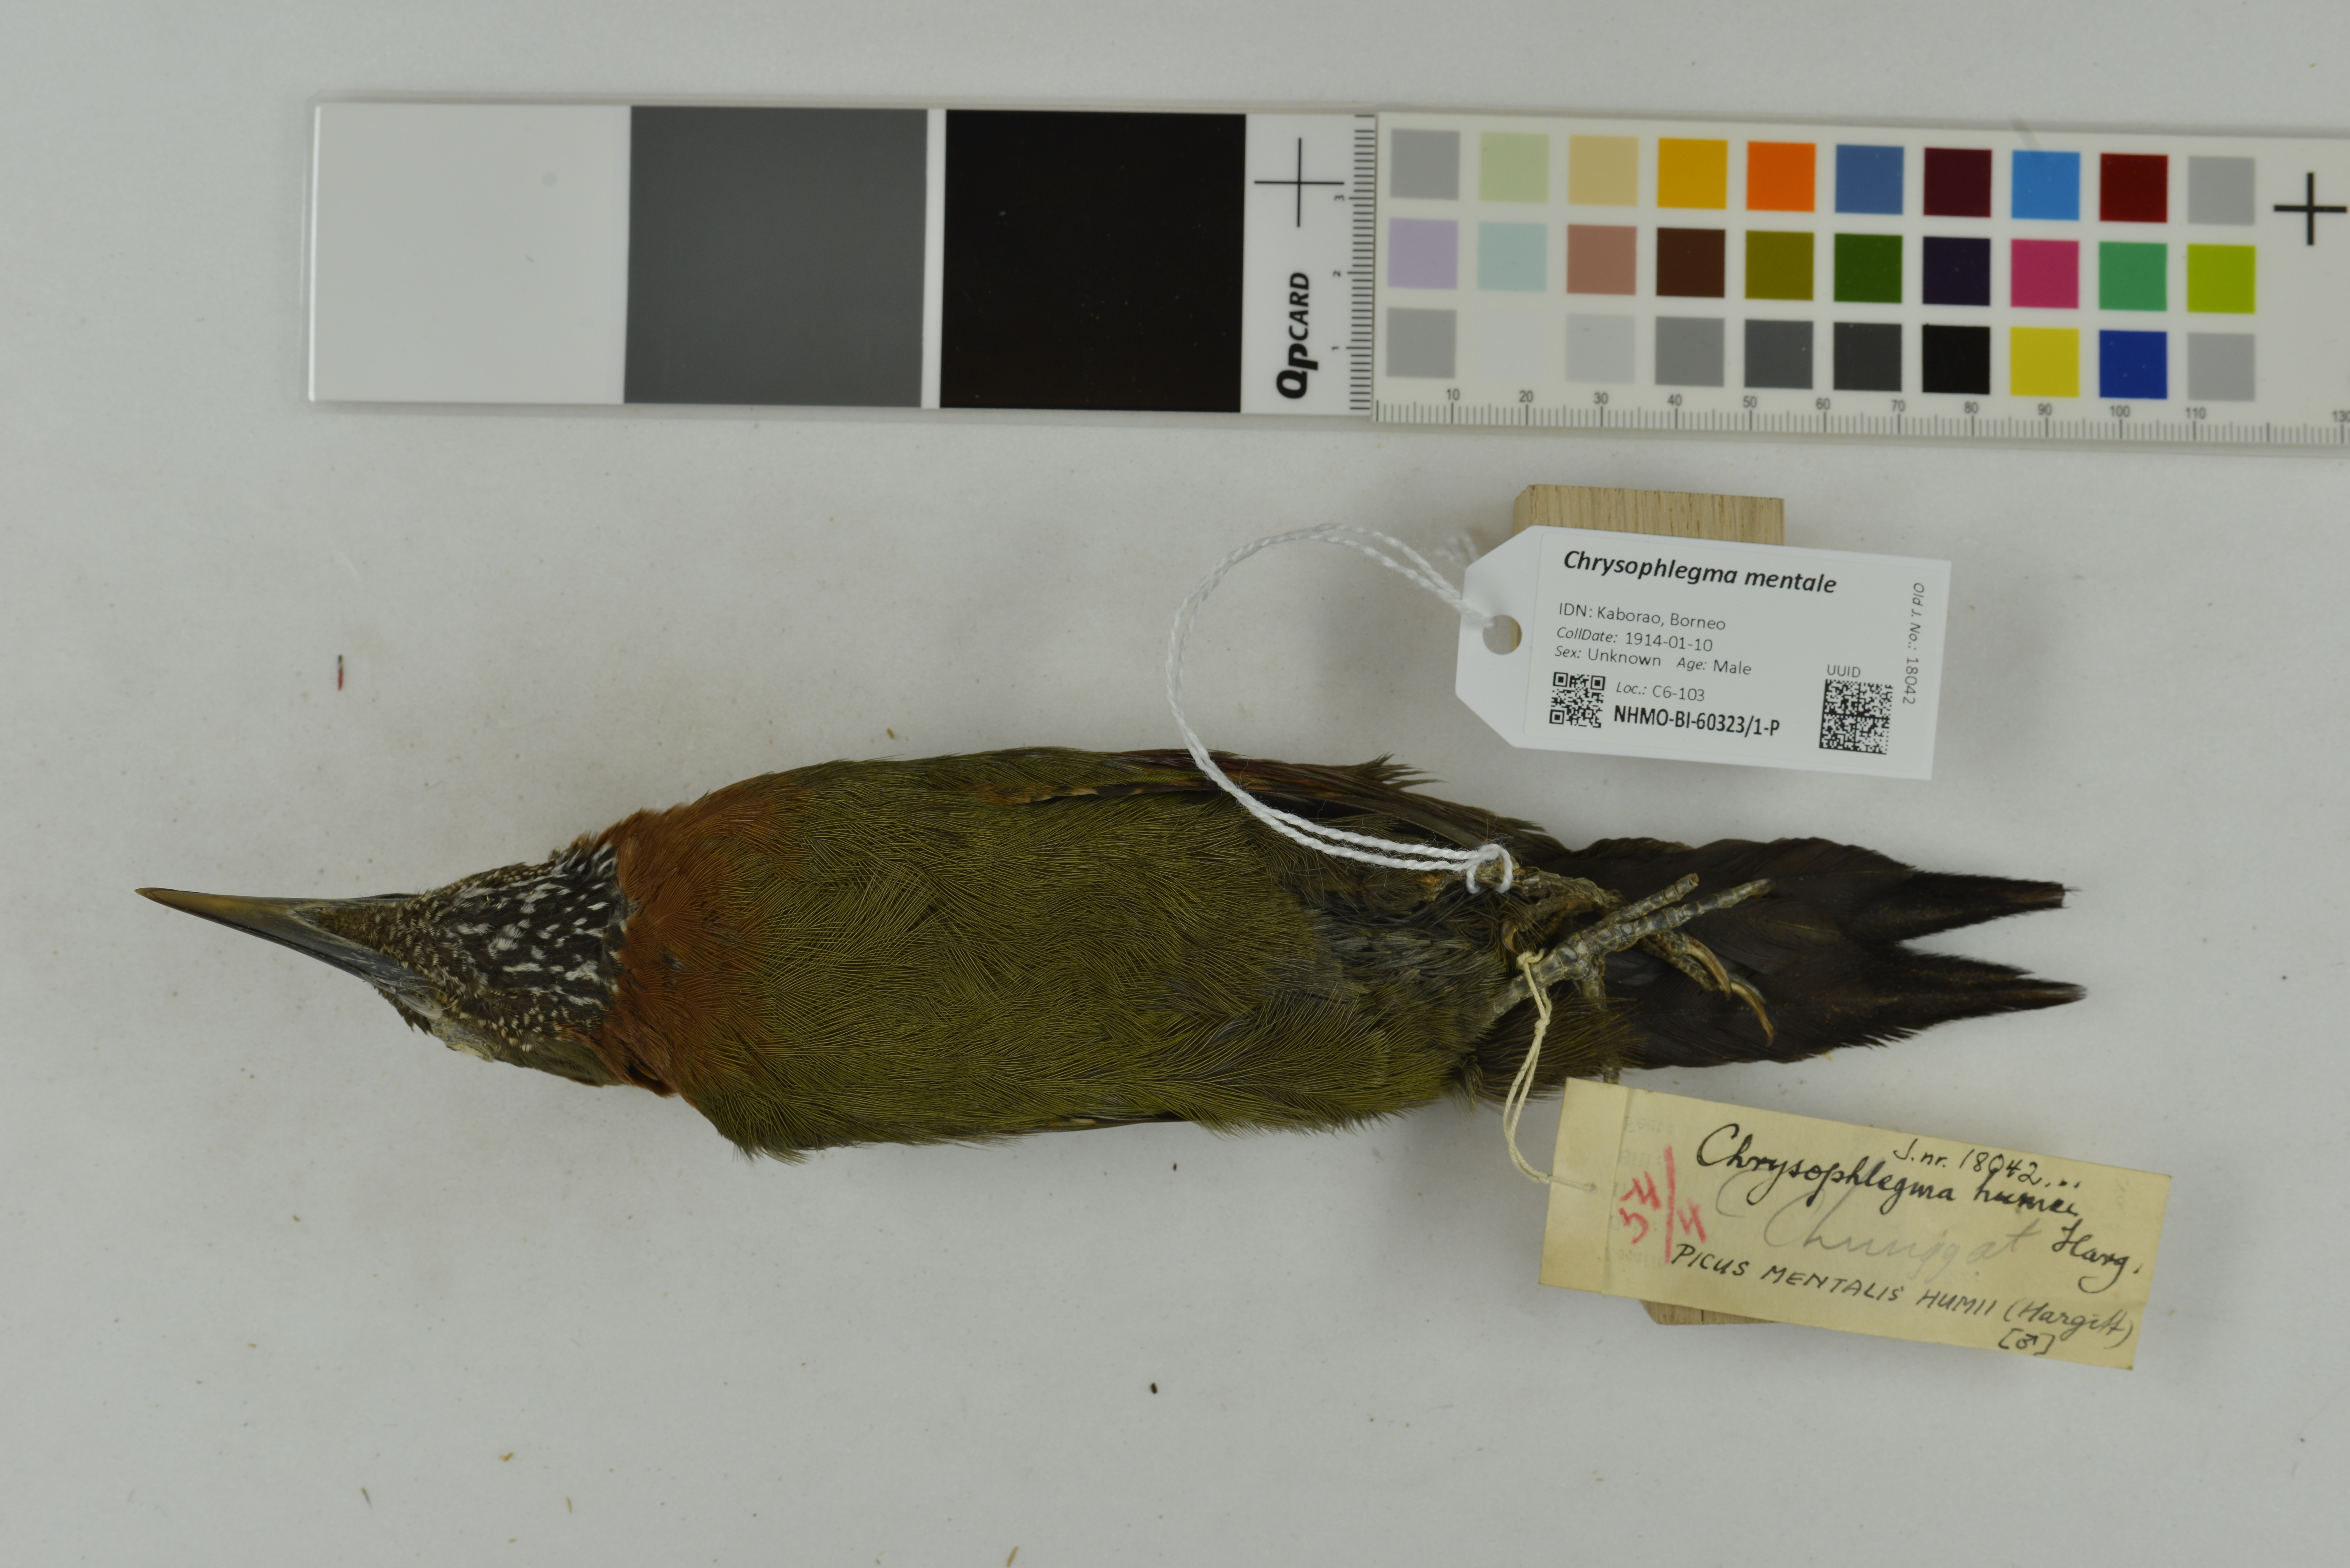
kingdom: Animalia
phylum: Chordata
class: Aves
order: Piciformes
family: Picidae
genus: Chrysophlegma
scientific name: Chrysophlegma mentale
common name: Checker-throated woodpecker
